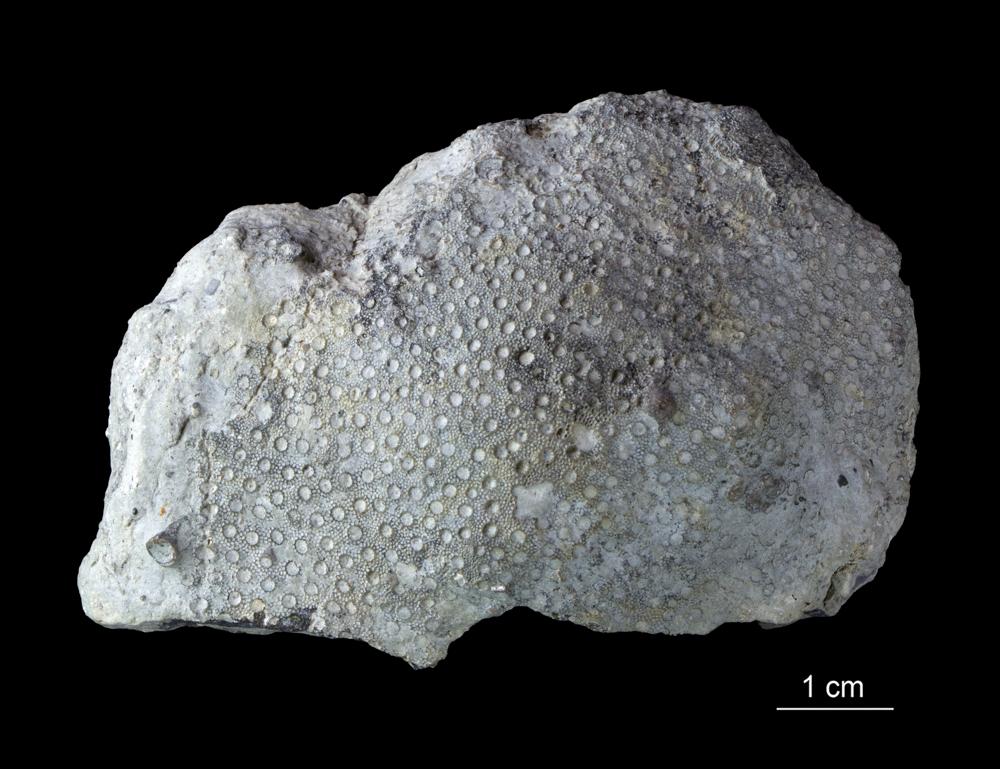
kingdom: Animalia
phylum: Cnidaria
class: Anthozoa
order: Heliolitina
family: Heliolitidae
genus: Heliolites
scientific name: Heliolites interstinctus
